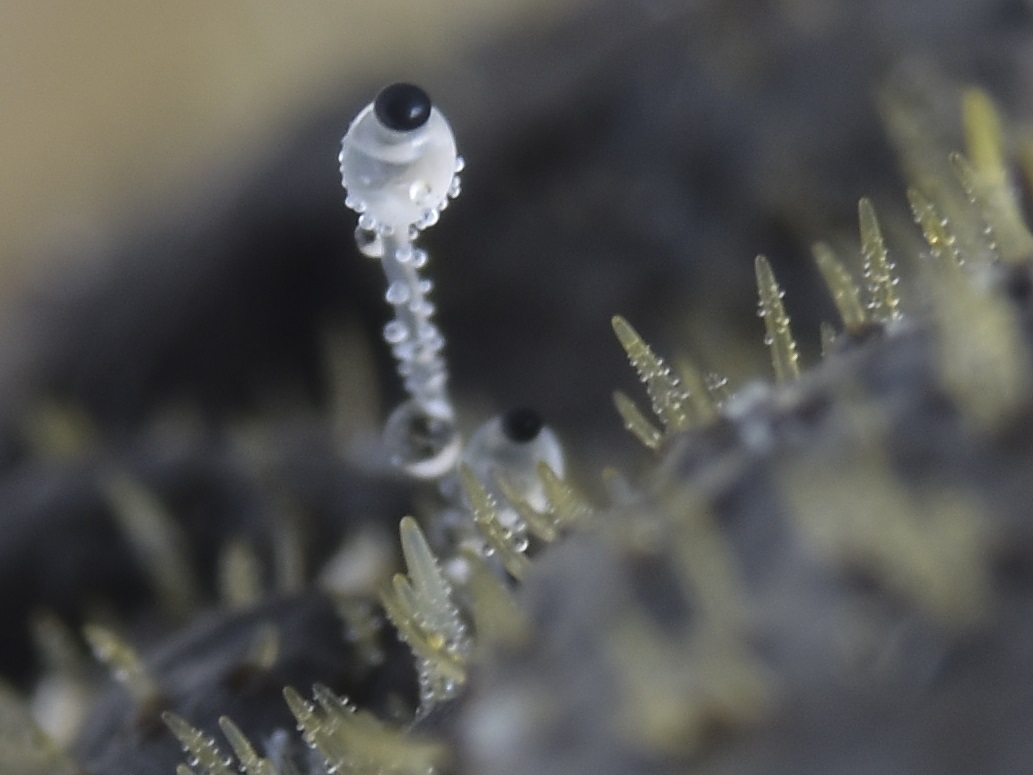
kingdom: Fungi
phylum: Mucoromycota
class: Mucoromycetes
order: Mucorales
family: Pilobolaceae
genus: Pilobolus
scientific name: Pilobolus
